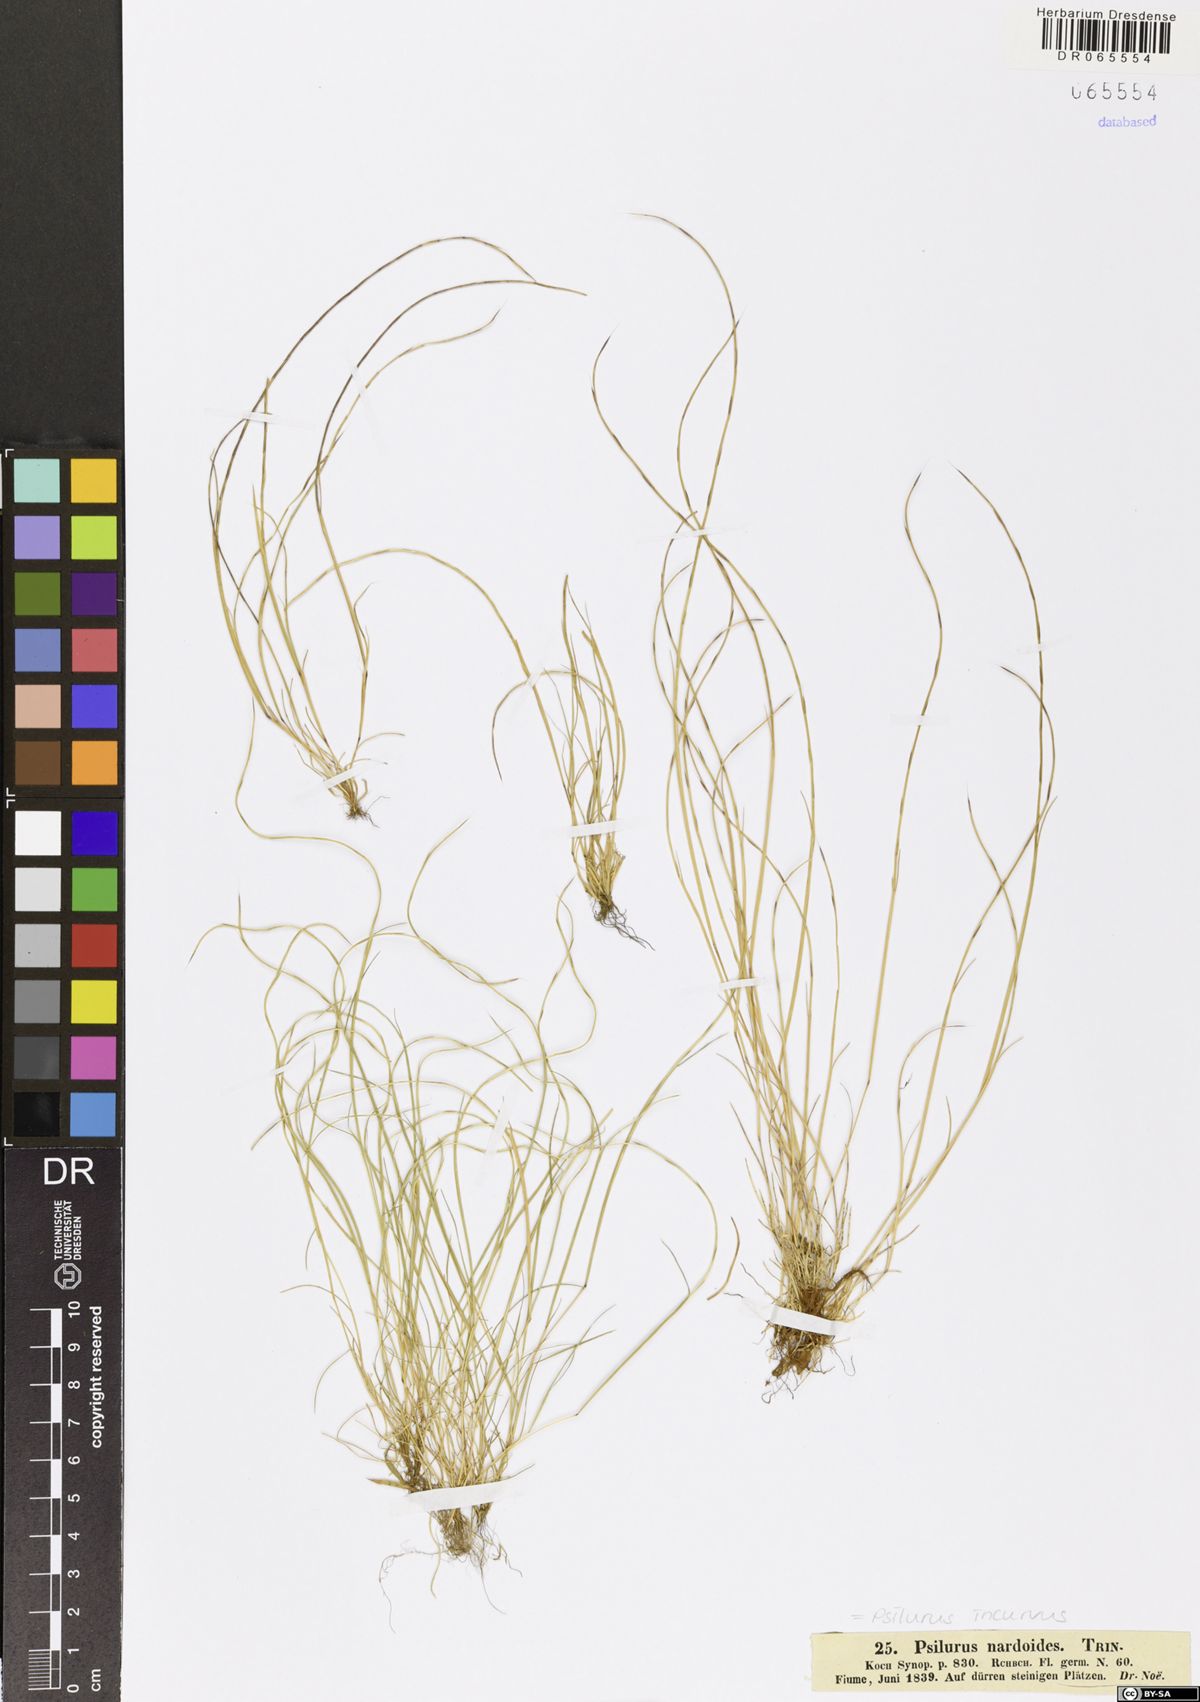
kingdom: Plantae
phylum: Tracheophyta
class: Liliopsida
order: Poales
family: Poaceae
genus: Festuca
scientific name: Festuca incurva
